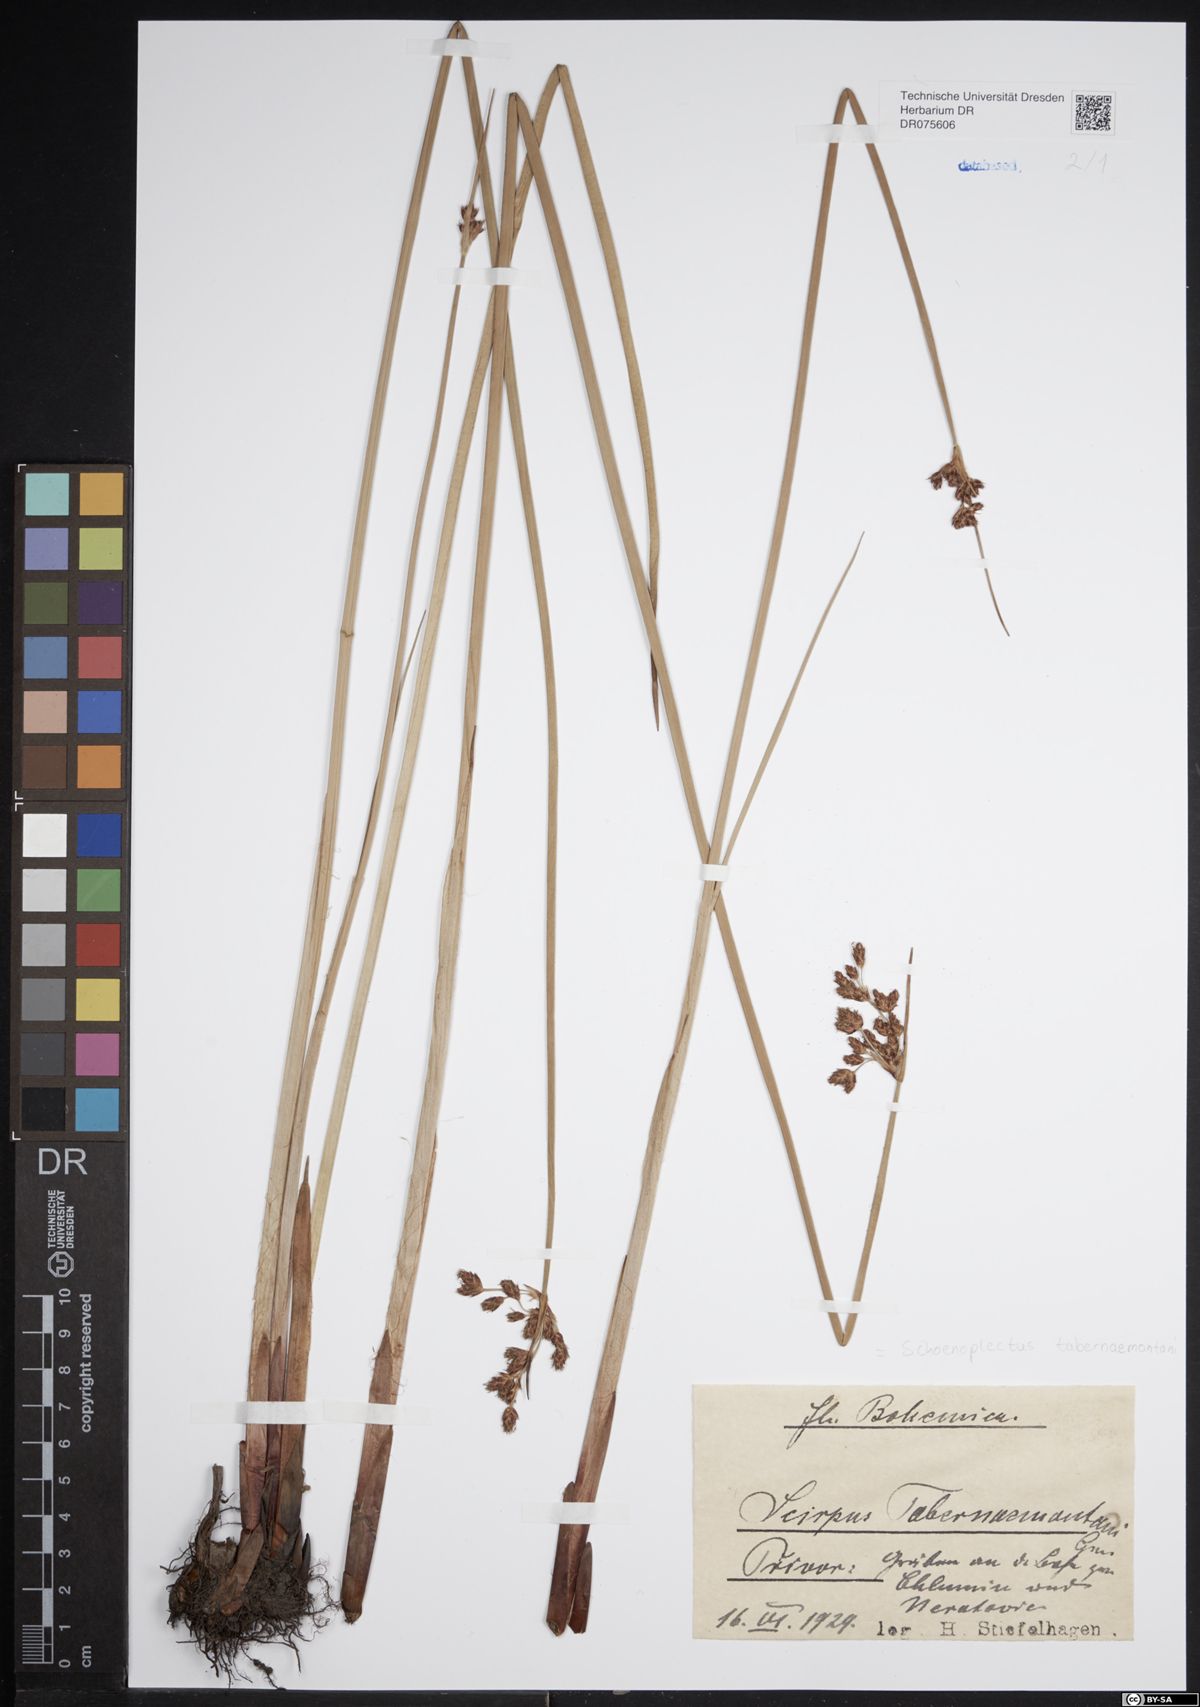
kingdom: Plantae
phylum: Tracheophyta
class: Liliopsida
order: Poales
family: Cyperaceae
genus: Schoenoplectus
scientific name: Schoenoplectus tabernaemontani
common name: Grey club-rush
